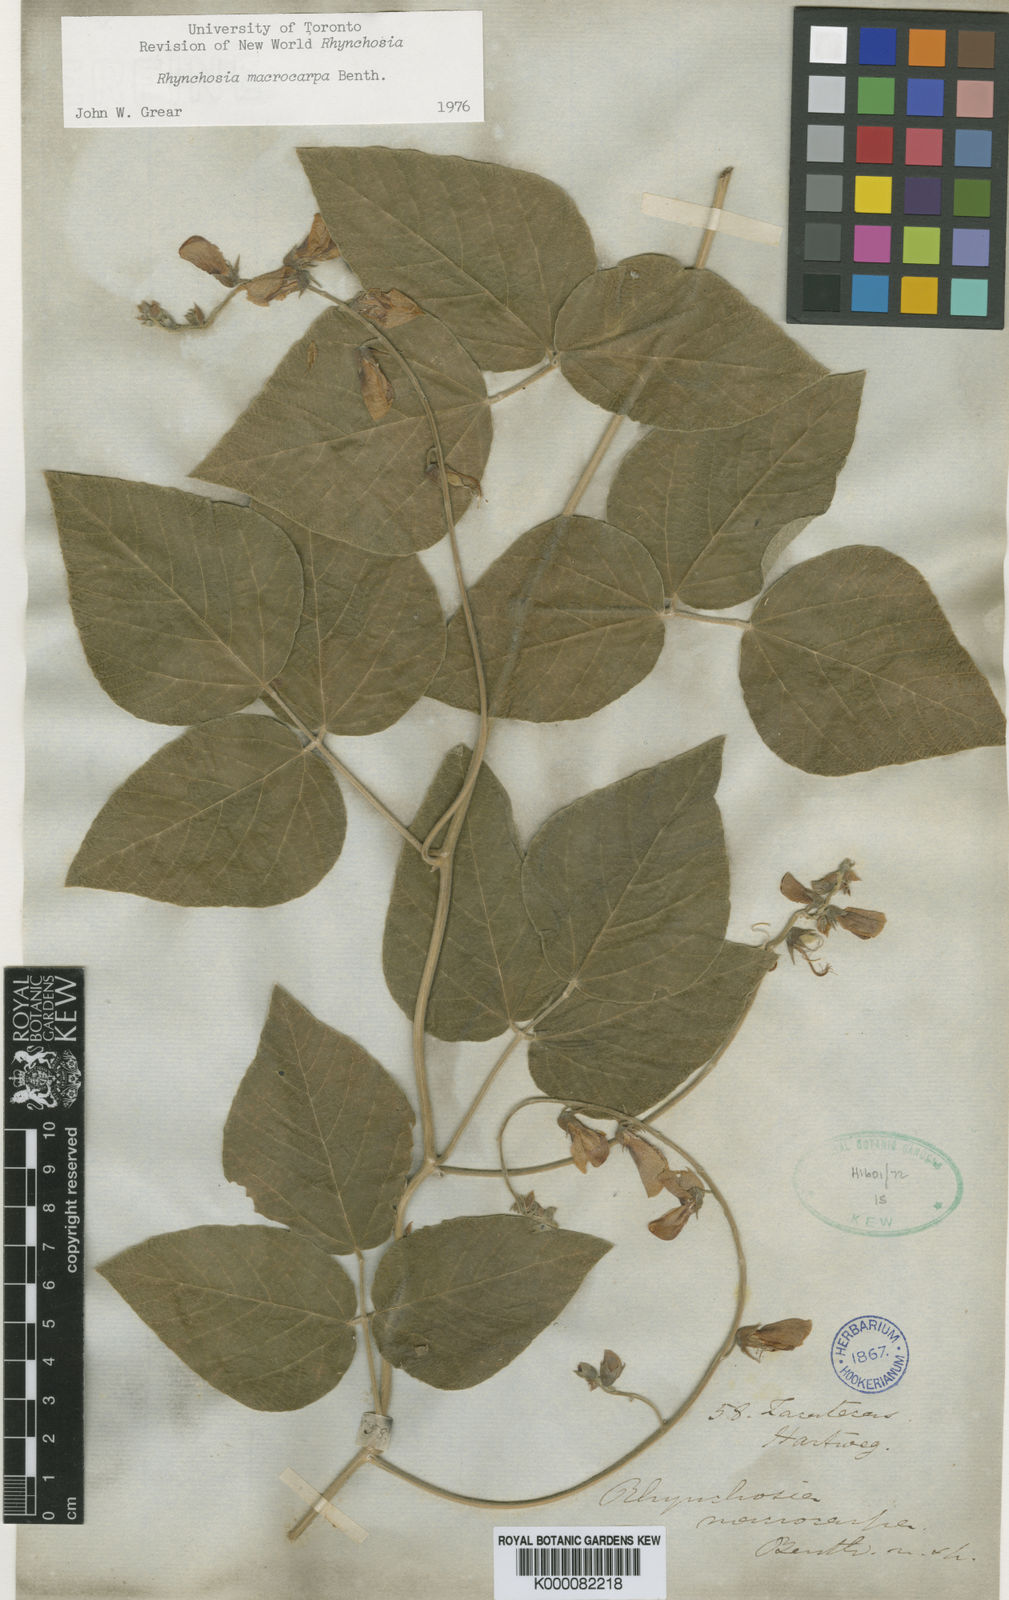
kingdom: Plantae
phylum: Tracheophyta
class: Magnoliopsida
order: Fabales
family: Fabaceae
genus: Rhynchosia
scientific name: Rhynchosia macrocarpa
